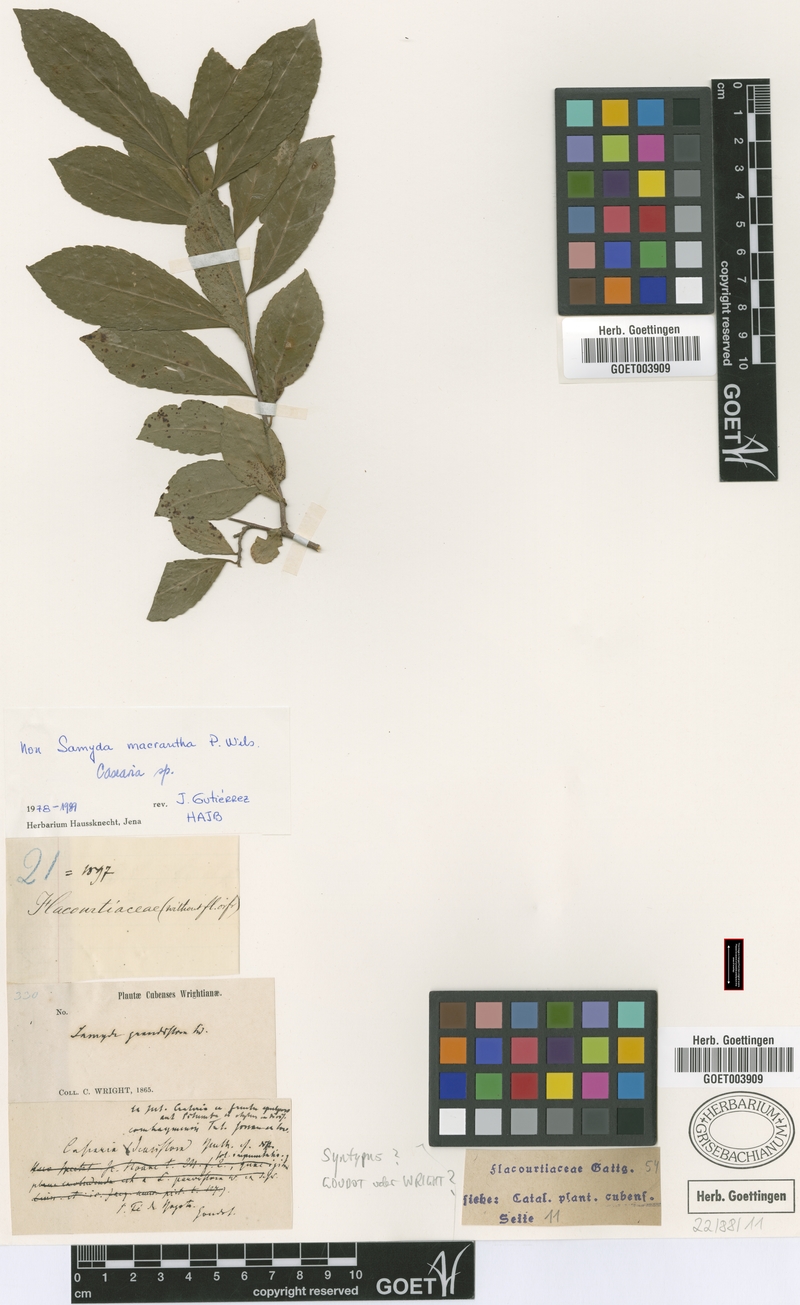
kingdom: Plantae
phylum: Tracheophyta
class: Magnoliopsida
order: Malpighiales
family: Salicaceae
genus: Casearia
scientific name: Casearia dolichanthera
